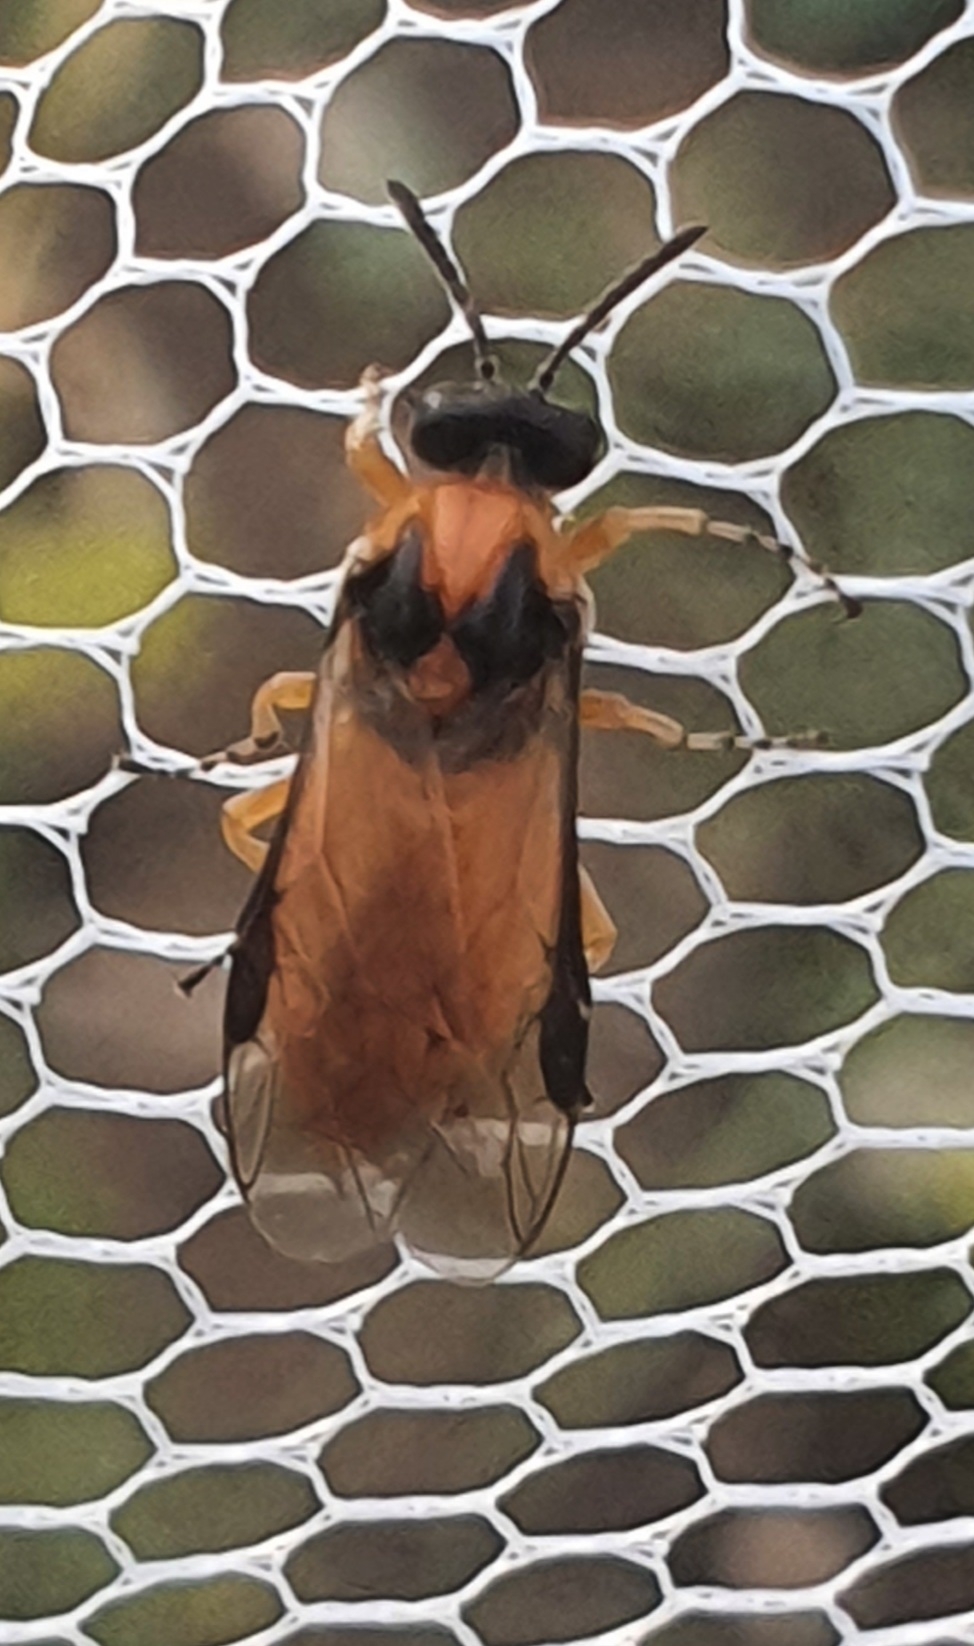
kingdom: Animalia
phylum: Arthropoda
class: Insecta
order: Hymenoptera
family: Tenthredinidae
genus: Athalia
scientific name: Athalia rosae
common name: Kålbladhveps
